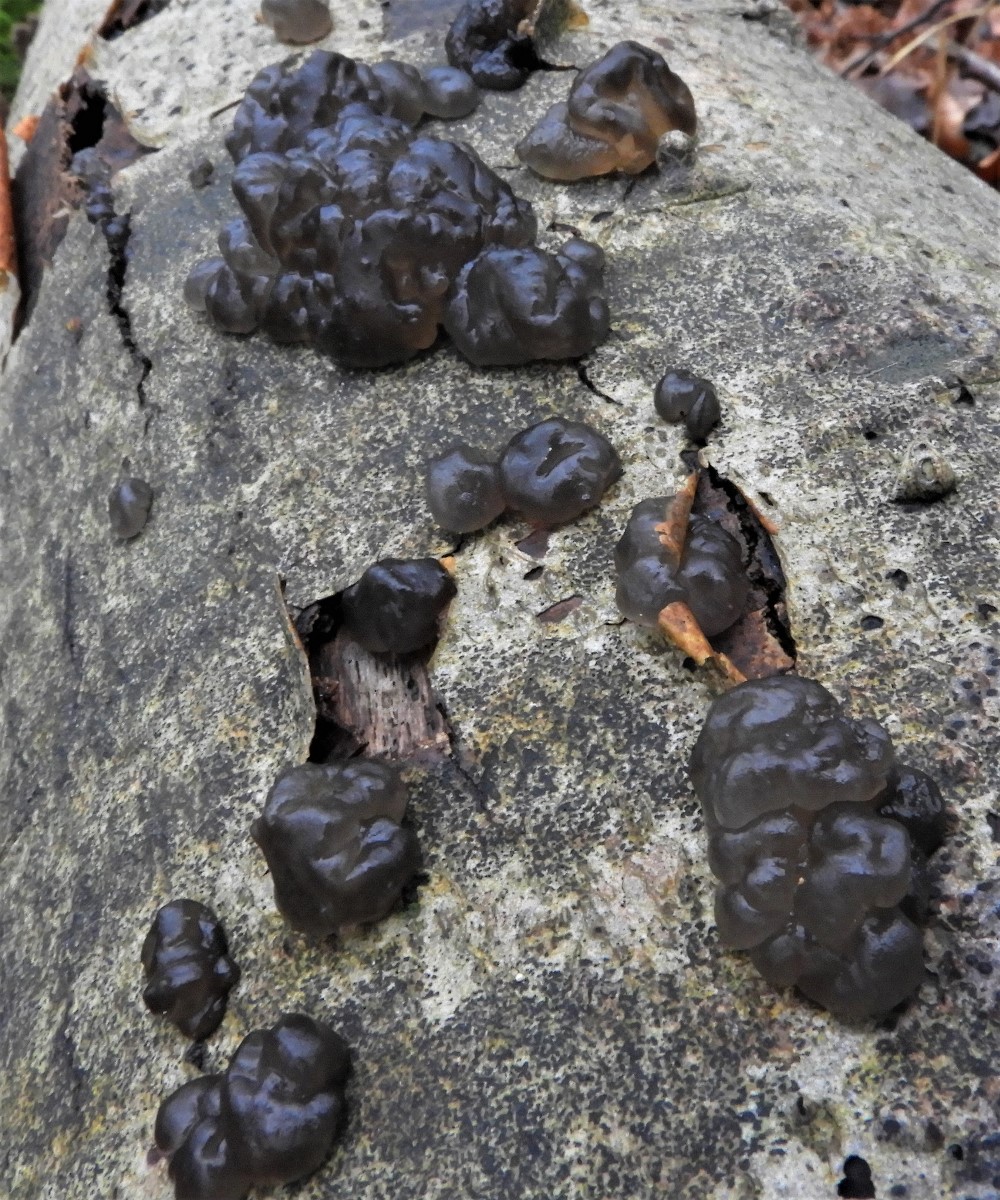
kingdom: Fungi
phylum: Basidiomycota
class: Agaricomycetes
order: Auriculariales
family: Auriculariaceae
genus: Exidia
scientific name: Exidia nigricans
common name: almindelig bævretop
